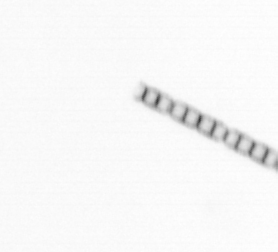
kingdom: Chromista
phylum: Ochrophyta
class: Bacillariophyceae
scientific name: Bacillariophyceae
